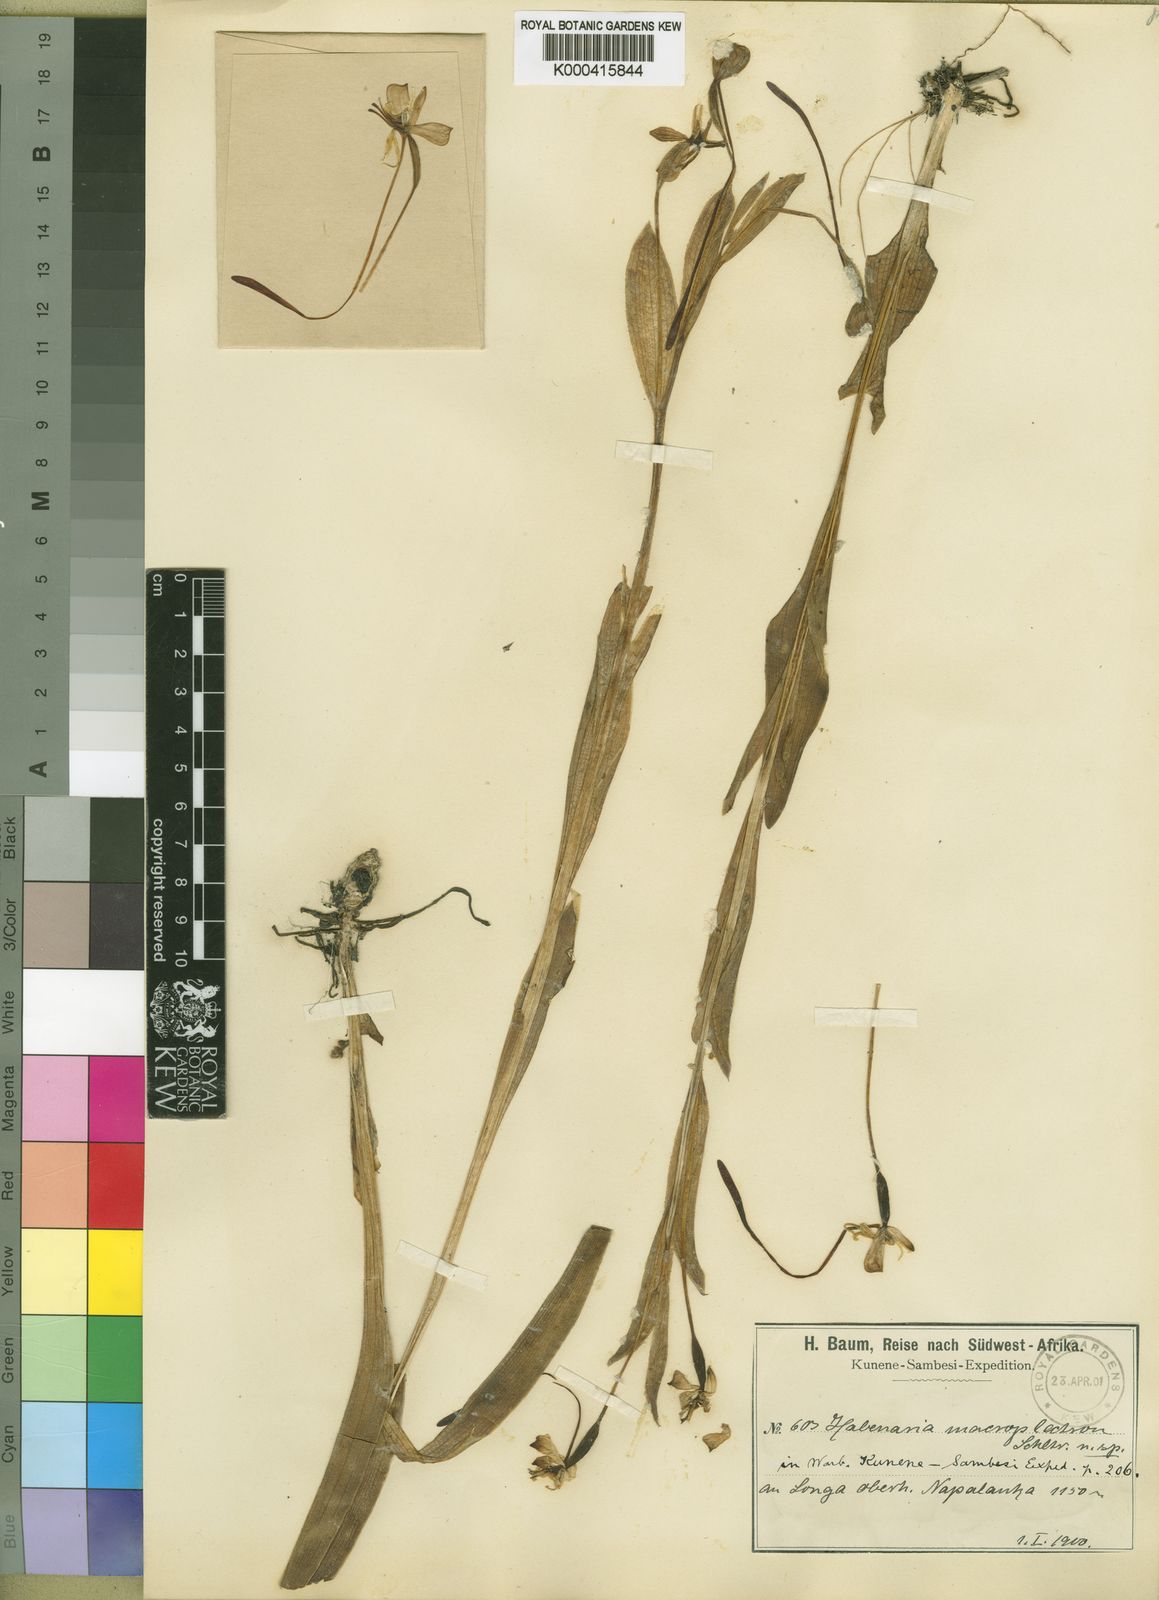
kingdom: Plantae
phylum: Tracheophyta
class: Liliopsida
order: Asparagales
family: Orchidaceae
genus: Habenaria
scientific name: Habenaria macroplectron
